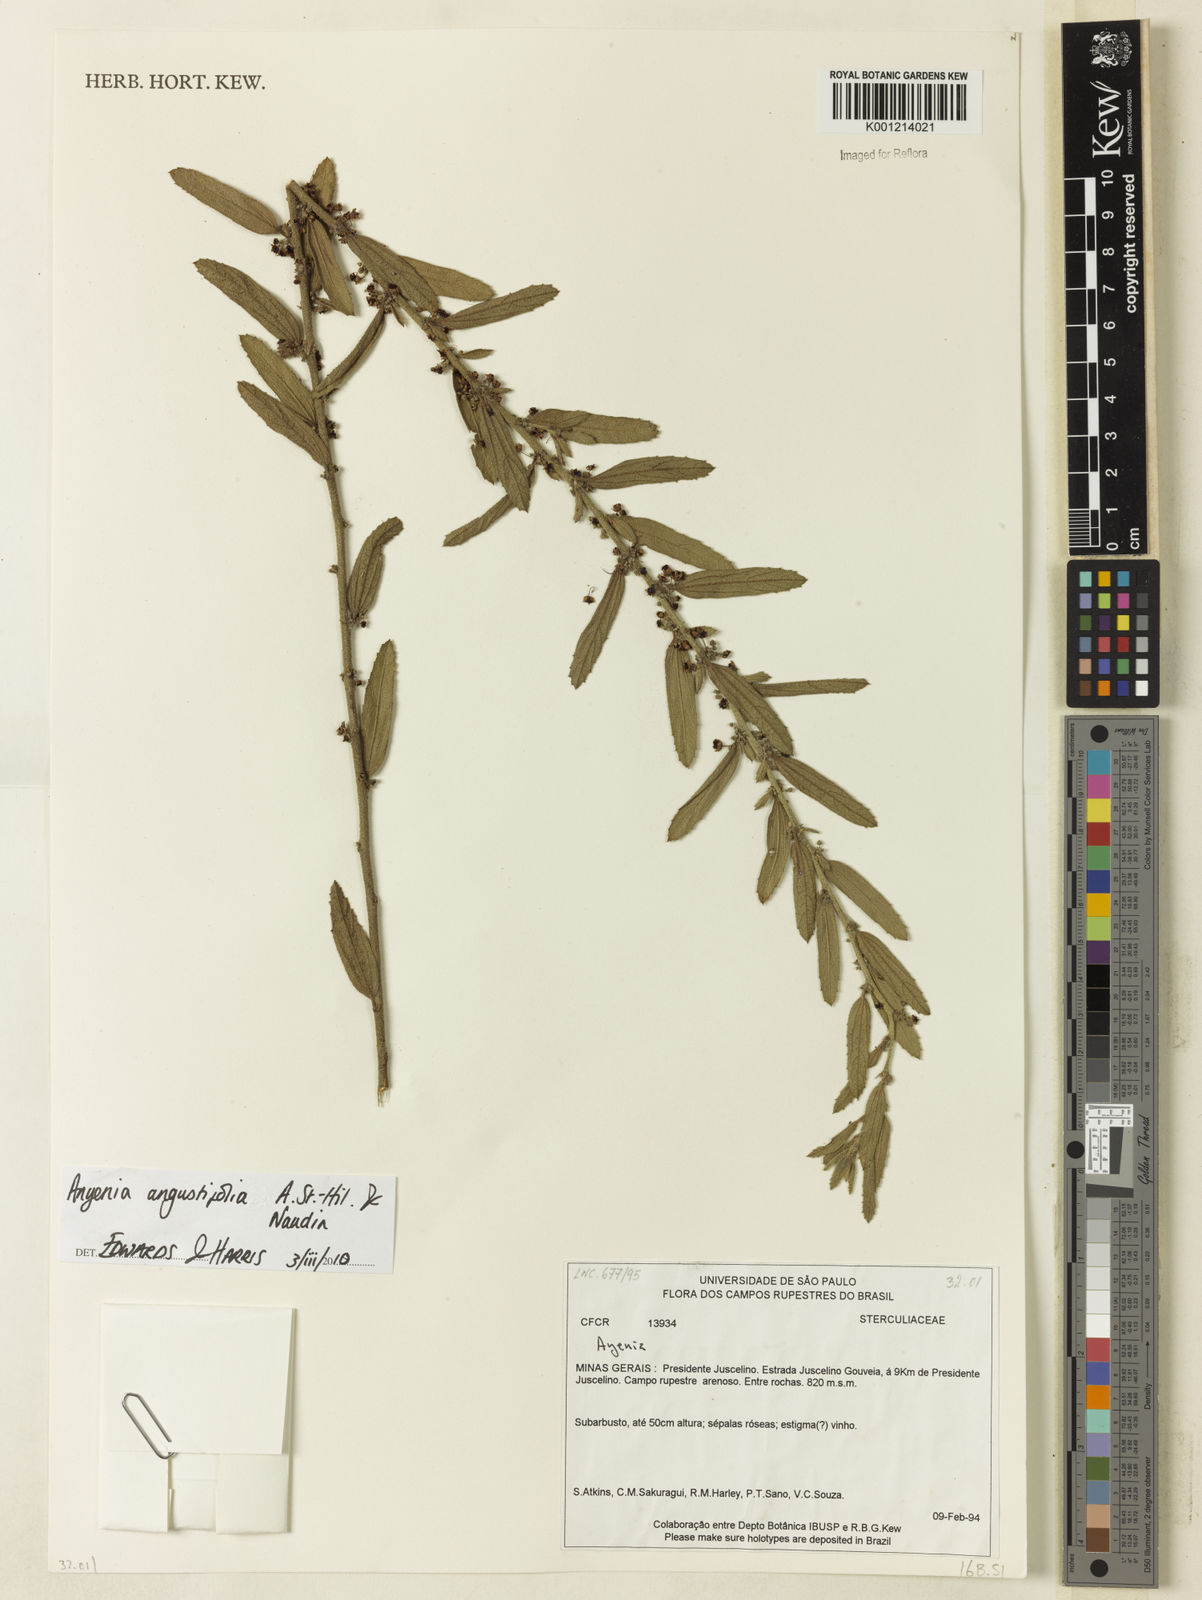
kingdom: Plantae
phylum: Tracheophyta
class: Magnoliopsida
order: Malvales
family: Malvaceae
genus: Ayenia
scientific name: Ayenia angustifolia
